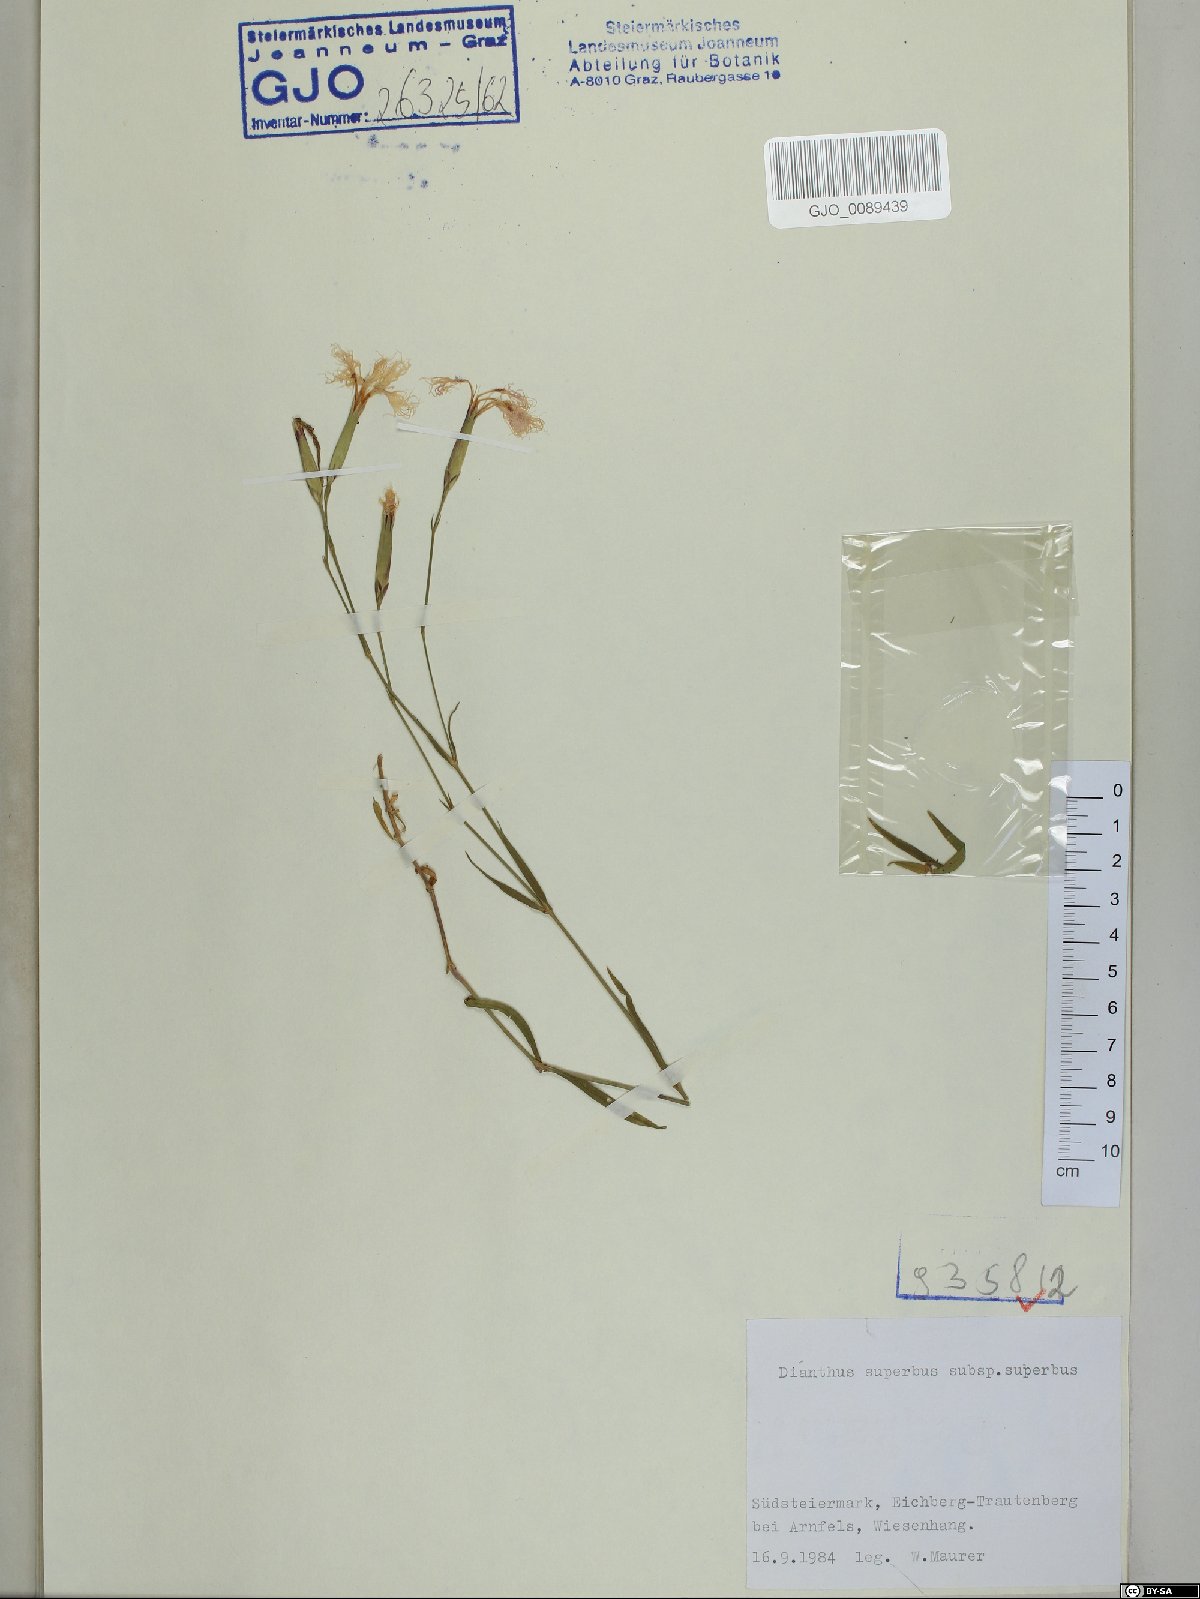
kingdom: Plantae
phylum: Tracheophyta
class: Magnoliopsida
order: Caryophyllales
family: Caryophyllaceae
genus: Dianthus
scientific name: Dianthus superbus
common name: Fringed pink
